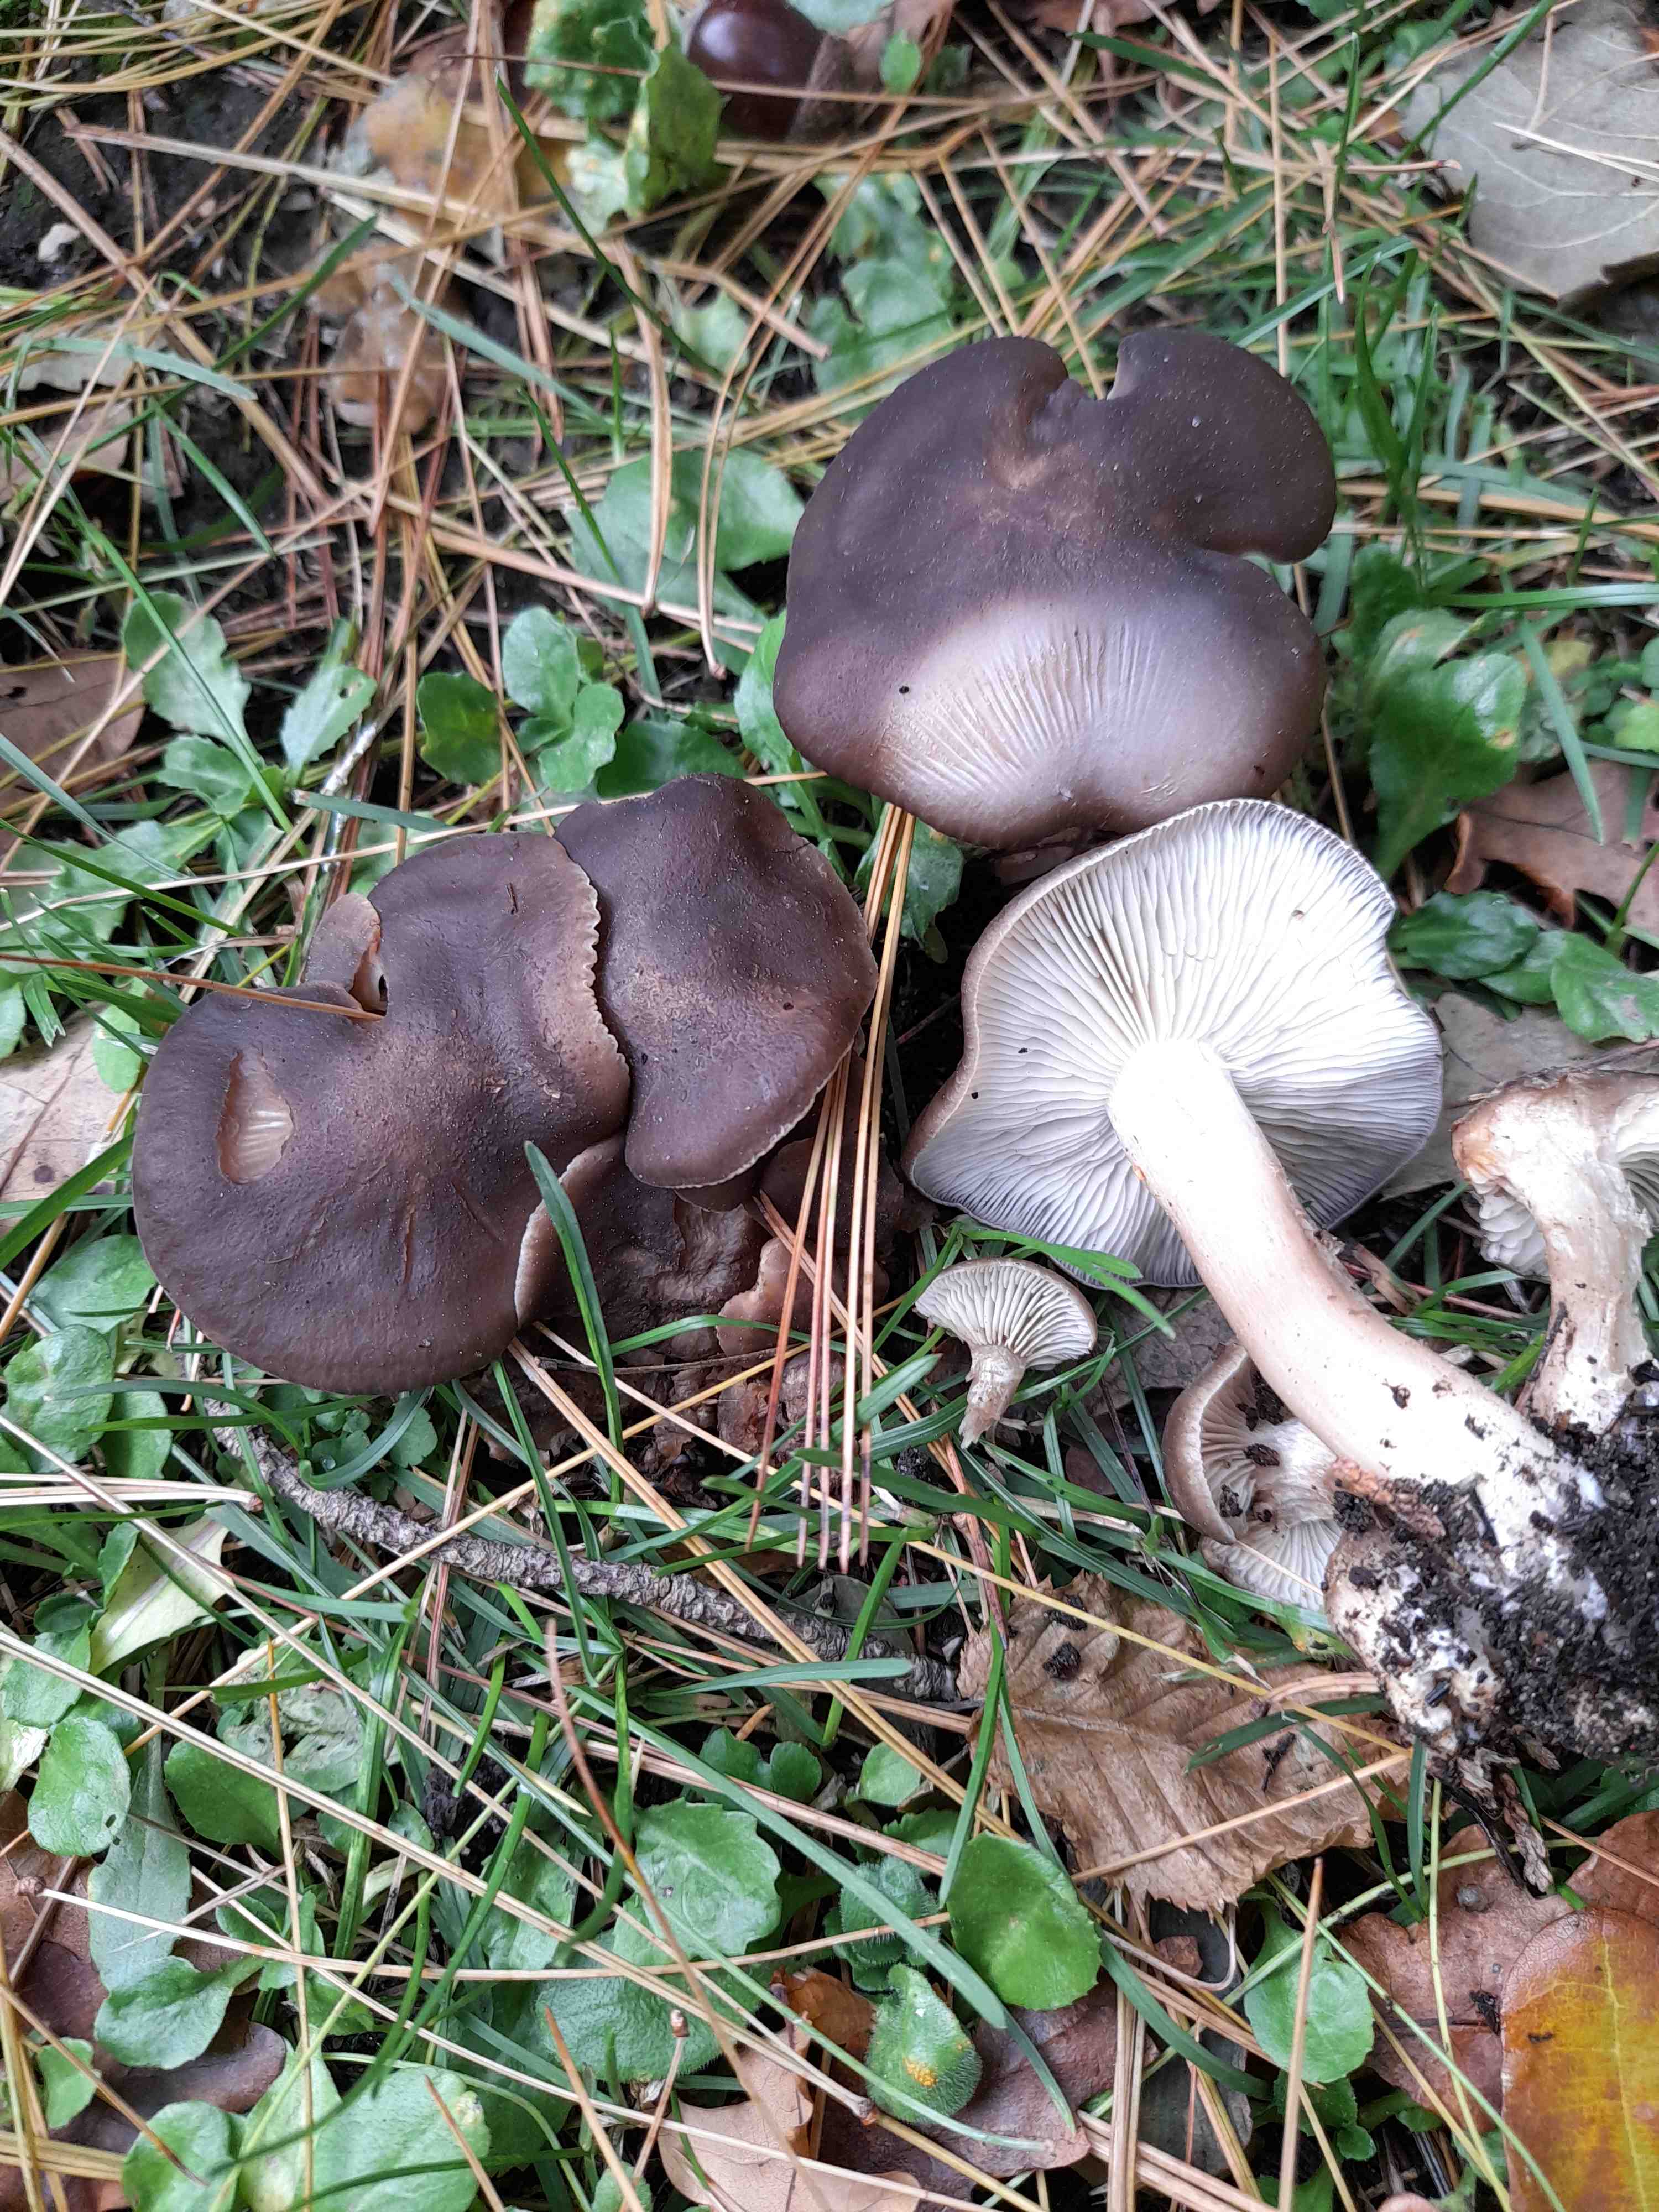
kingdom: Fungi
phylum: Basidiomycota
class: Agaricomycetes
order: Agaricales
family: Lyophyllaceae
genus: Lyophyllum
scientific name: Lyophyllum decastes
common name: røggrå gråblad
